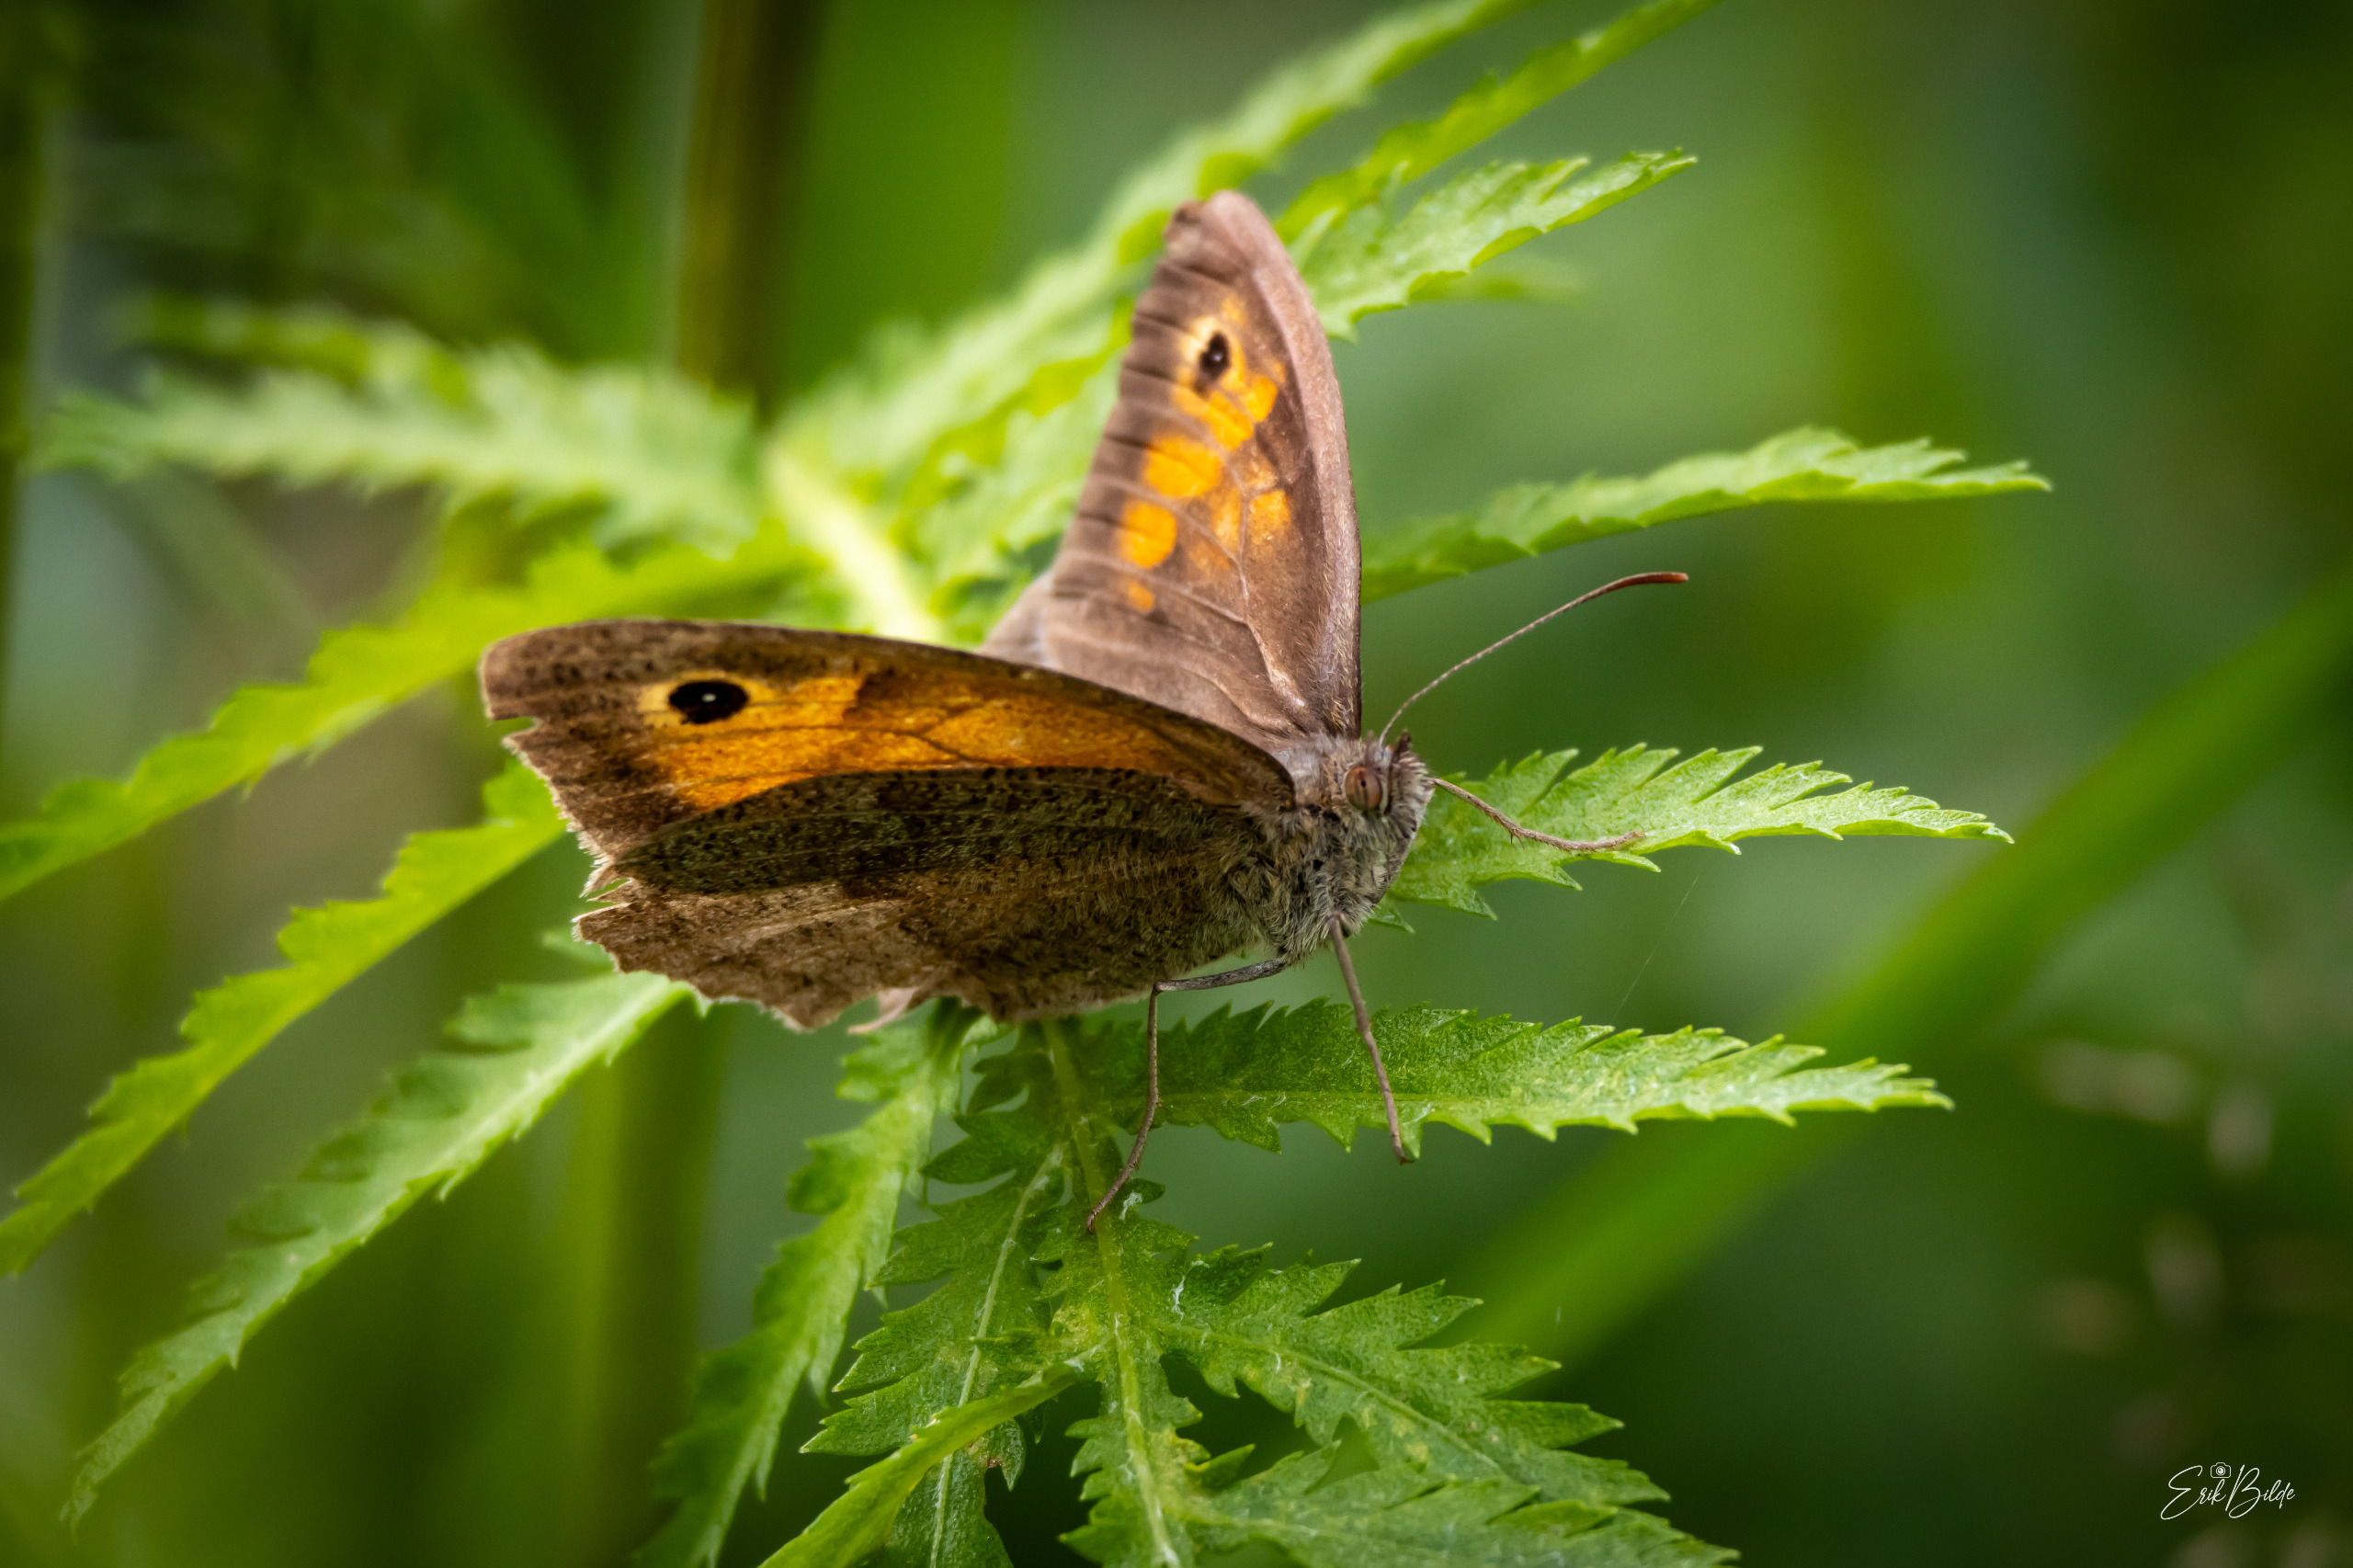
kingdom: Animalia
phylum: Arthropoda
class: Insecta
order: Lepidoptera
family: Nymphalidae
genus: Maniola
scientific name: Maniola jurtina
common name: Græsrandøje
